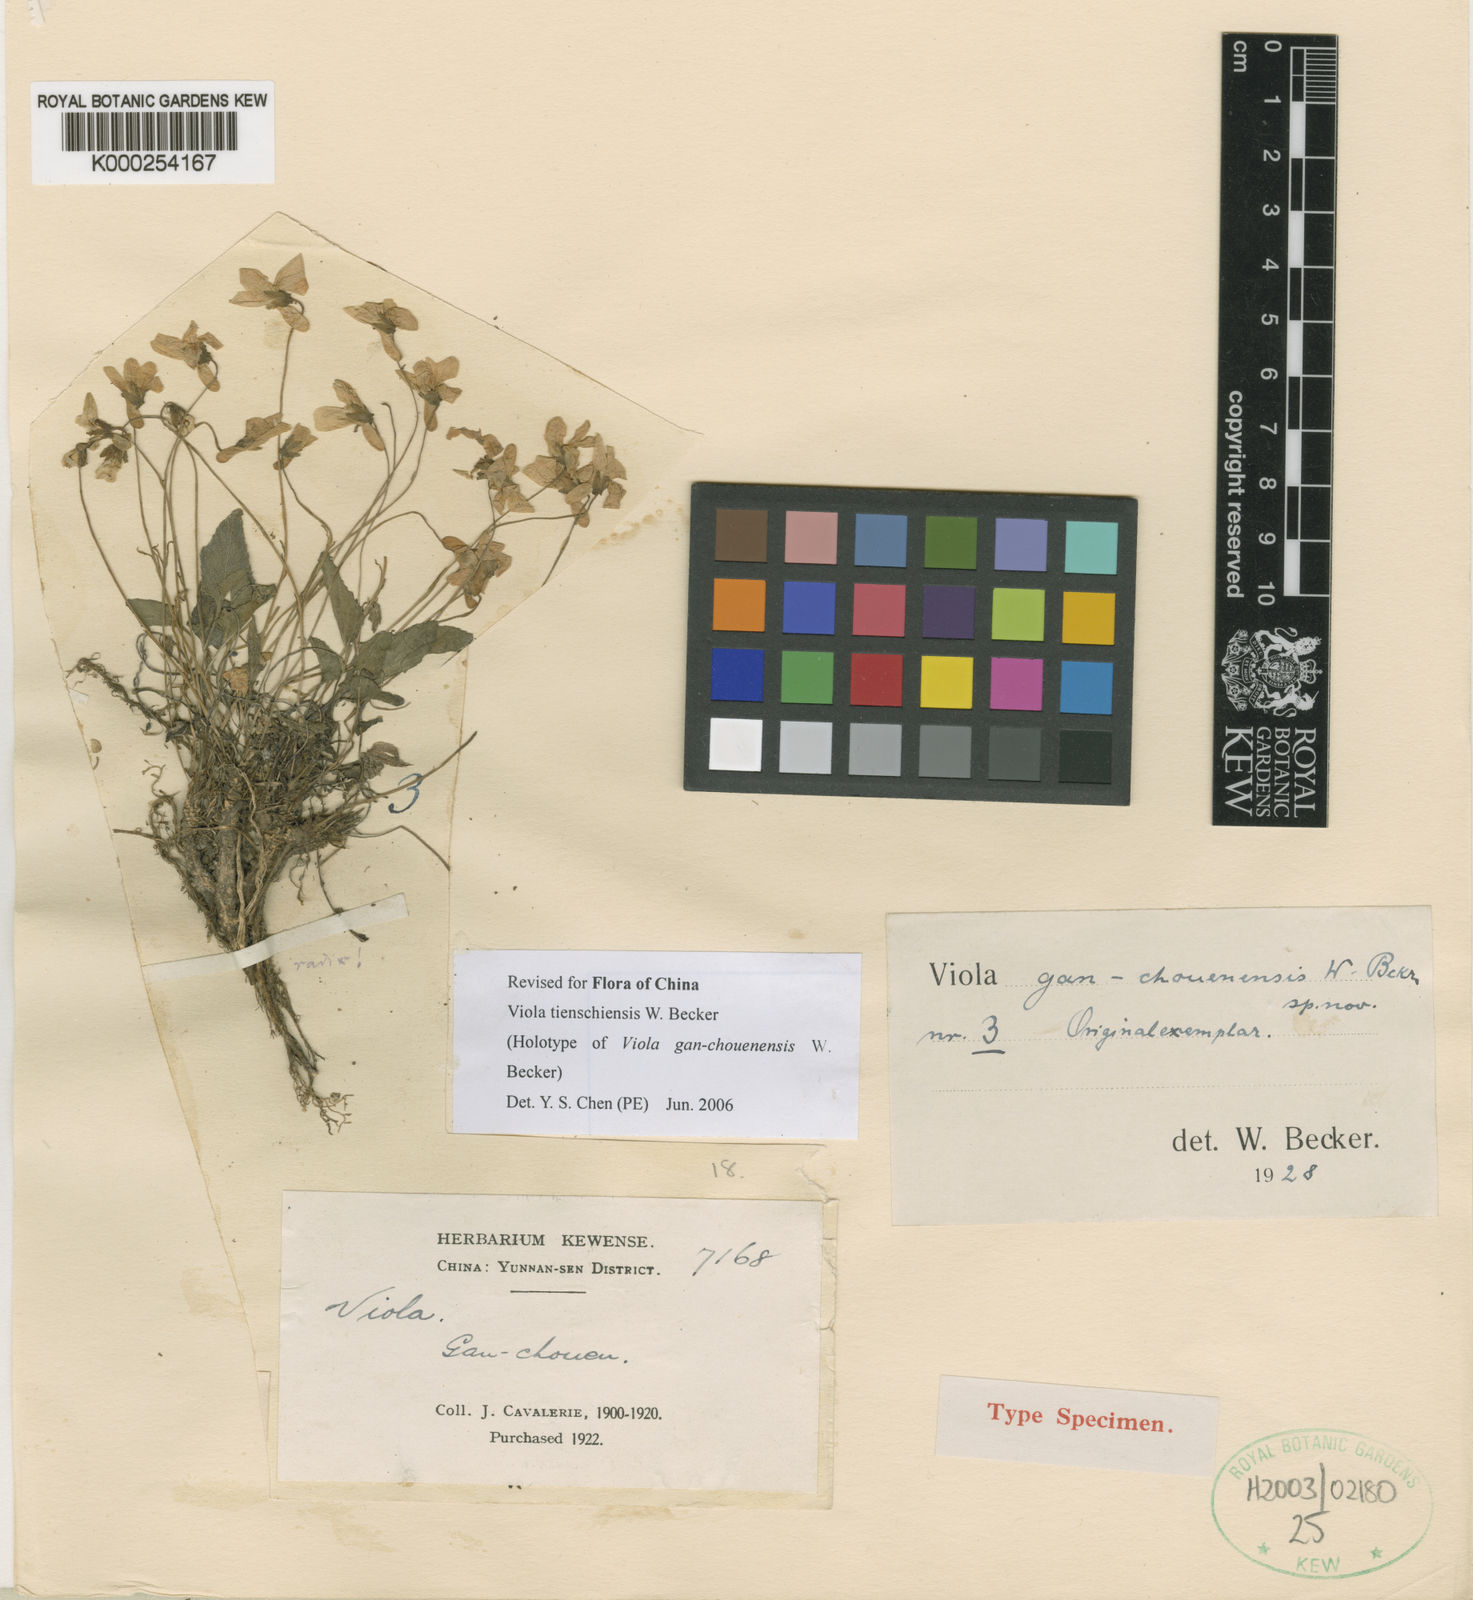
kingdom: Plantae
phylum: Tracheophyta
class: Magnoliopsida
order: Malpighiales
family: Violaceae
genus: Viola
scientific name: Viola tienschiensis
